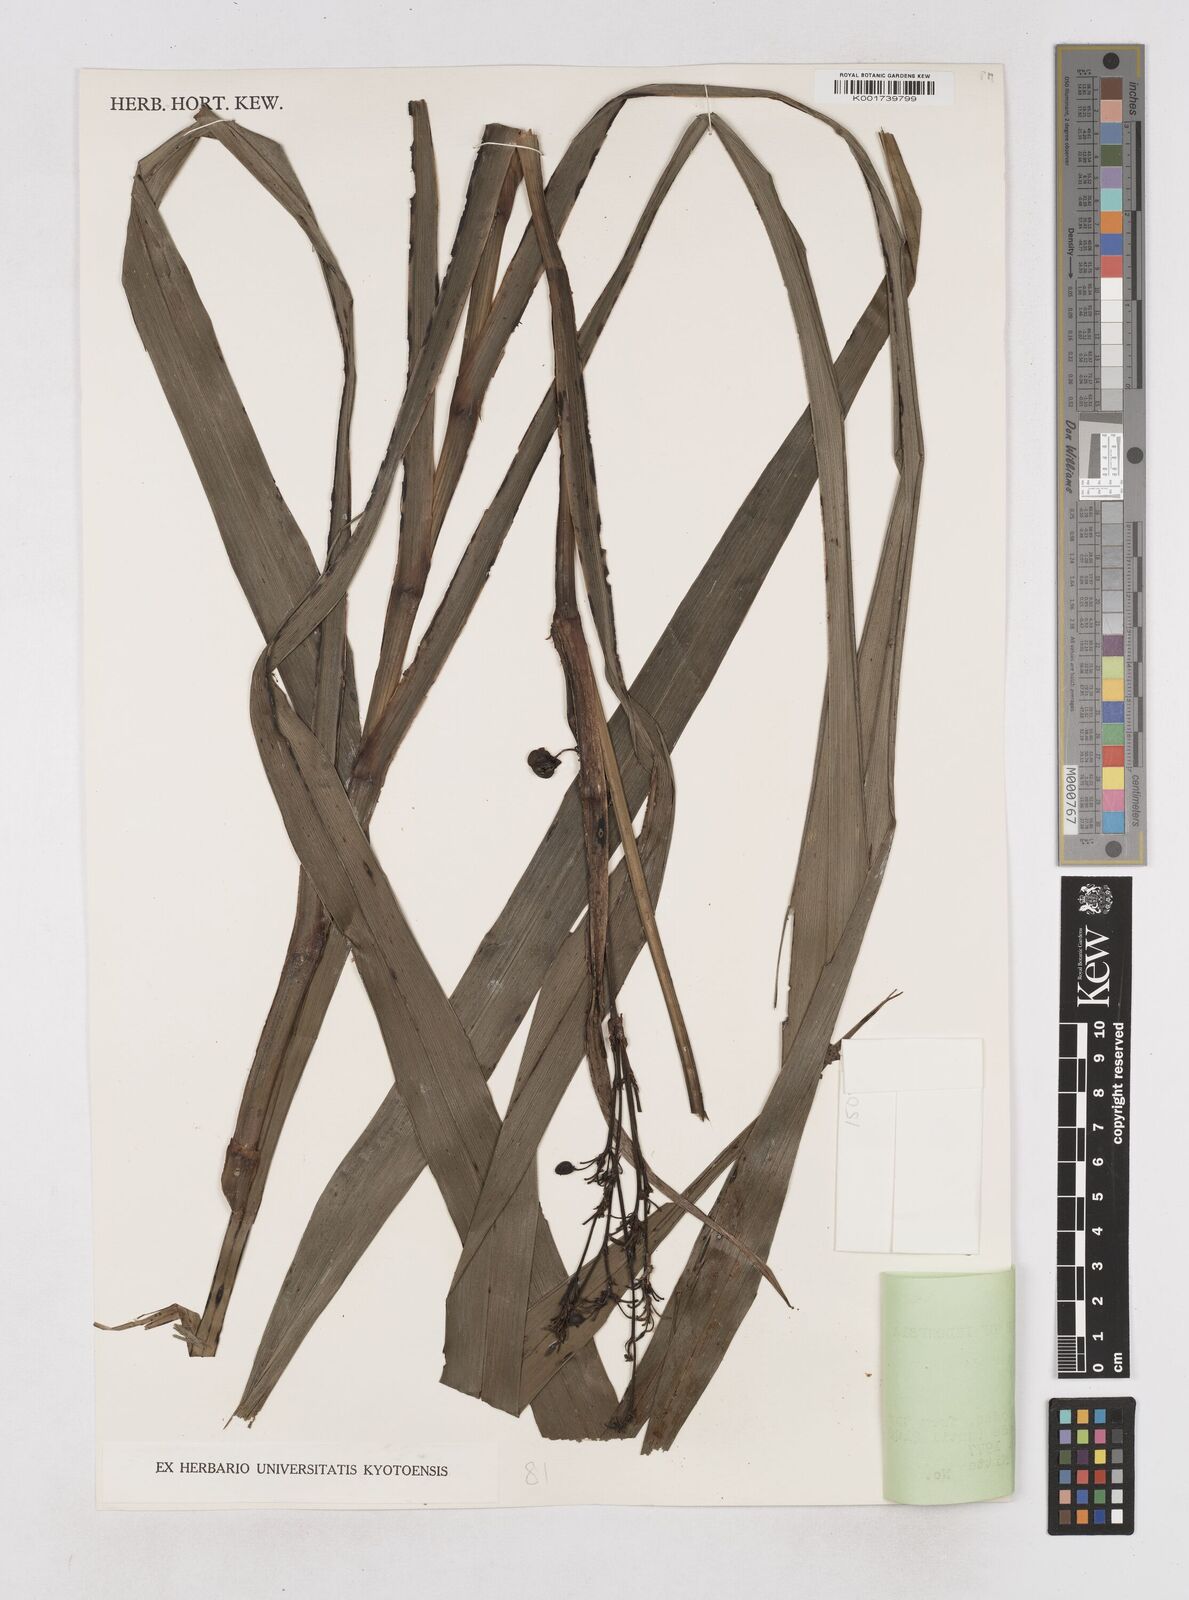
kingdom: Plantae
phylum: Tracheophyta
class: Liliopsida
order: Asparagales
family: Asphodelaceae
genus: Dianella
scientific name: Dianella ensifolia
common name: New zealand lilyplant
